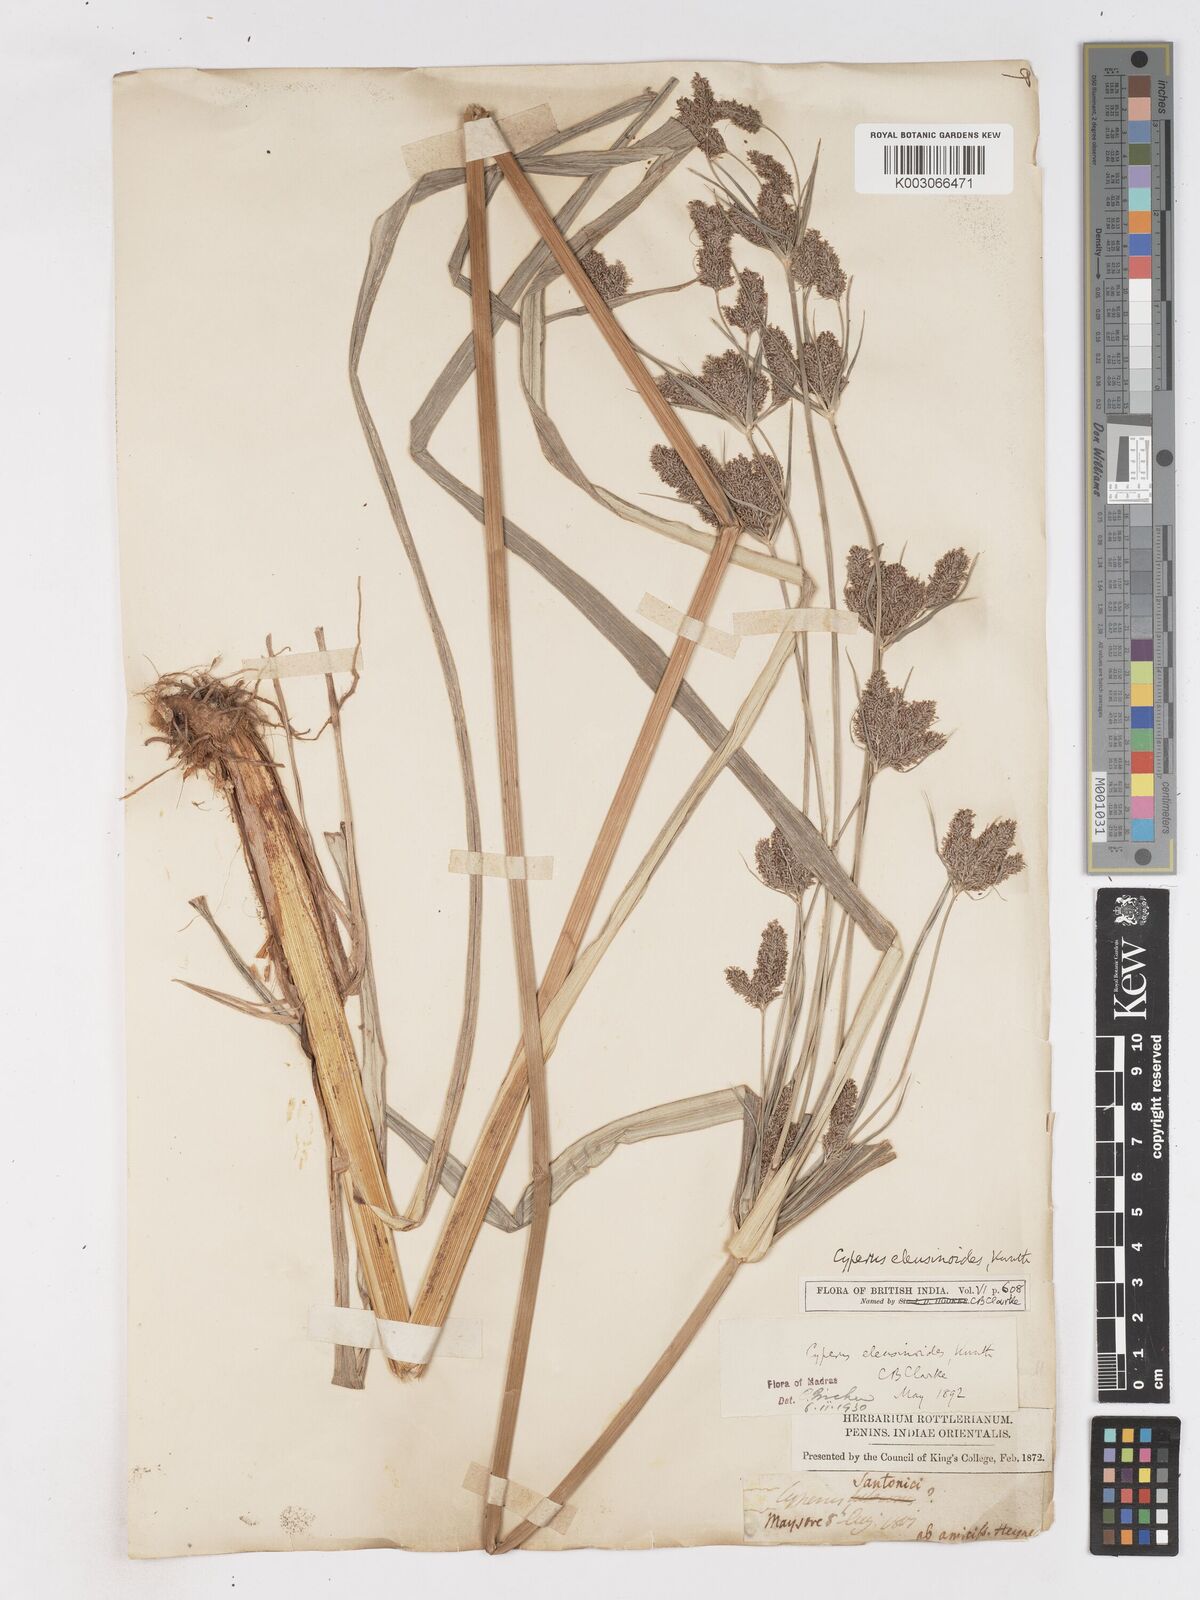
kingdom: Plantae
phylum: Tracheophyta
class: Liliopsida
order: Poales
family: Cyperaceae
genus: Cyperus
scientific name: Cyperus nutans
